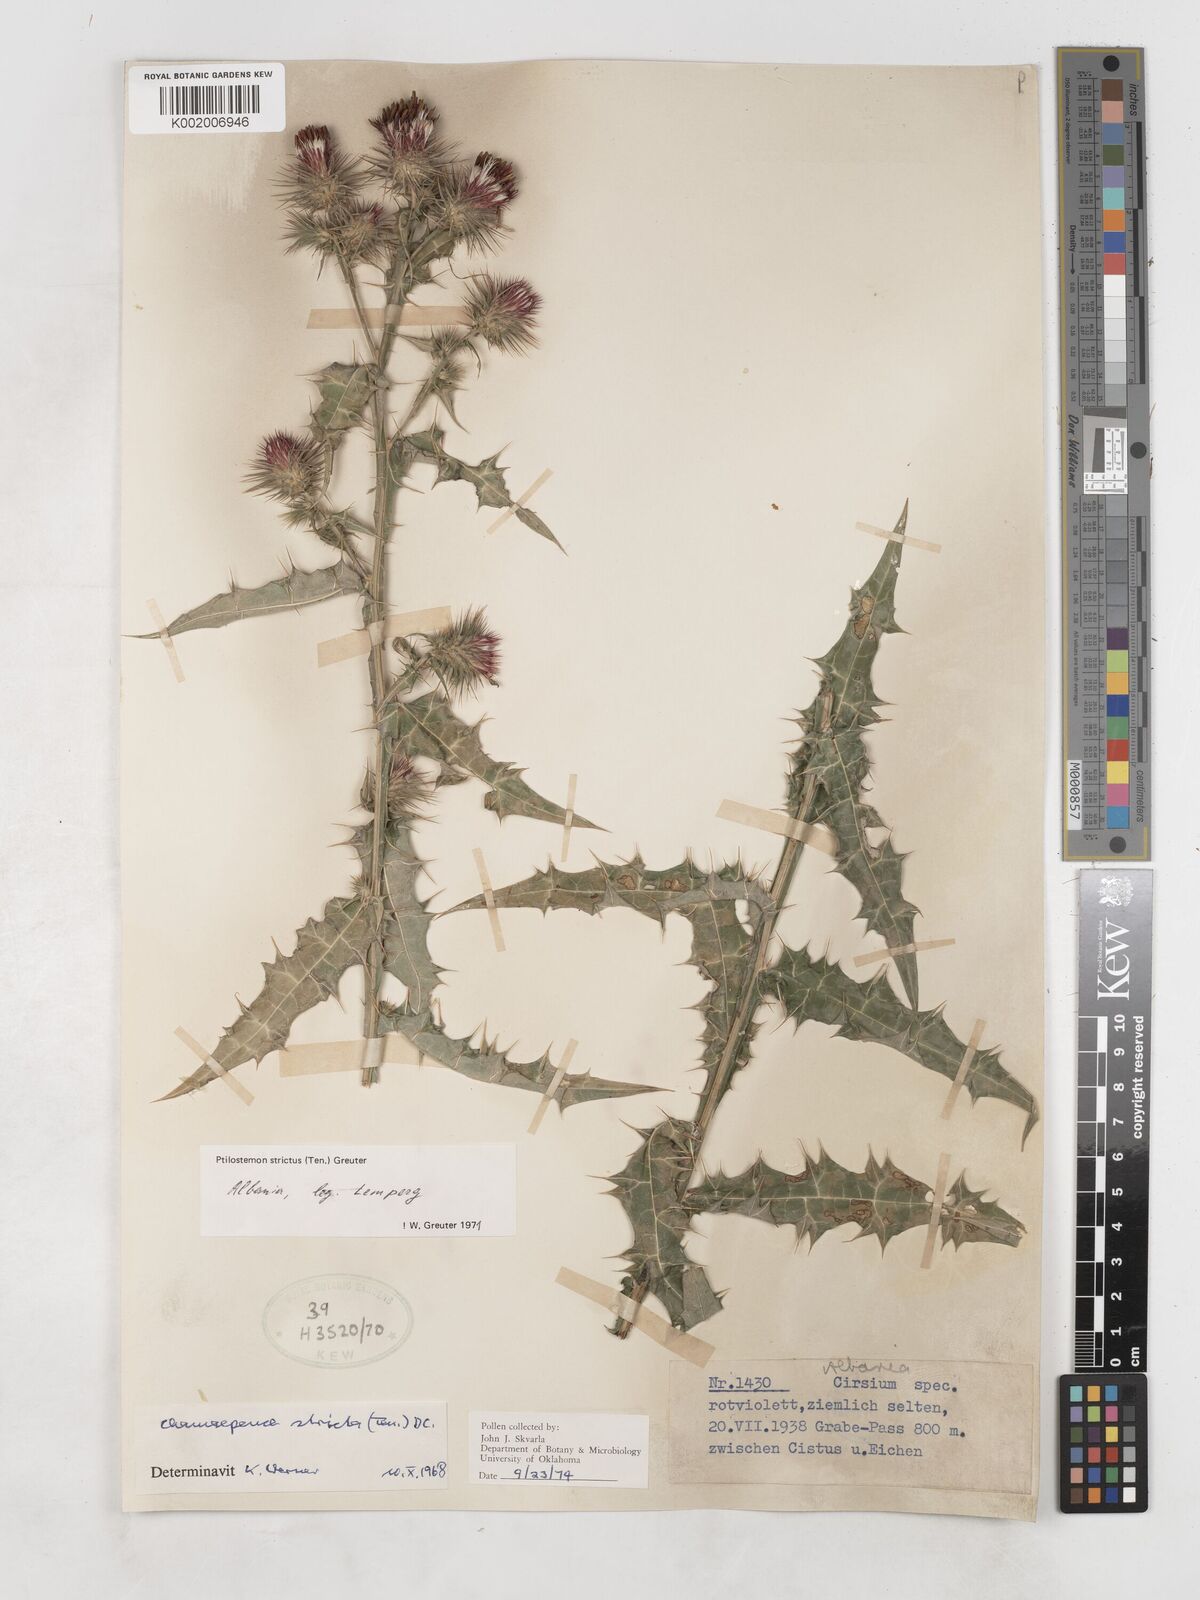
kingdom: Plantae
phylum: Tracheophyta
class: Magnoliopsida
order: Asterales
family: Asteraceae
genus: Ptilostemon
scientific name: Ptilostemon strictus
